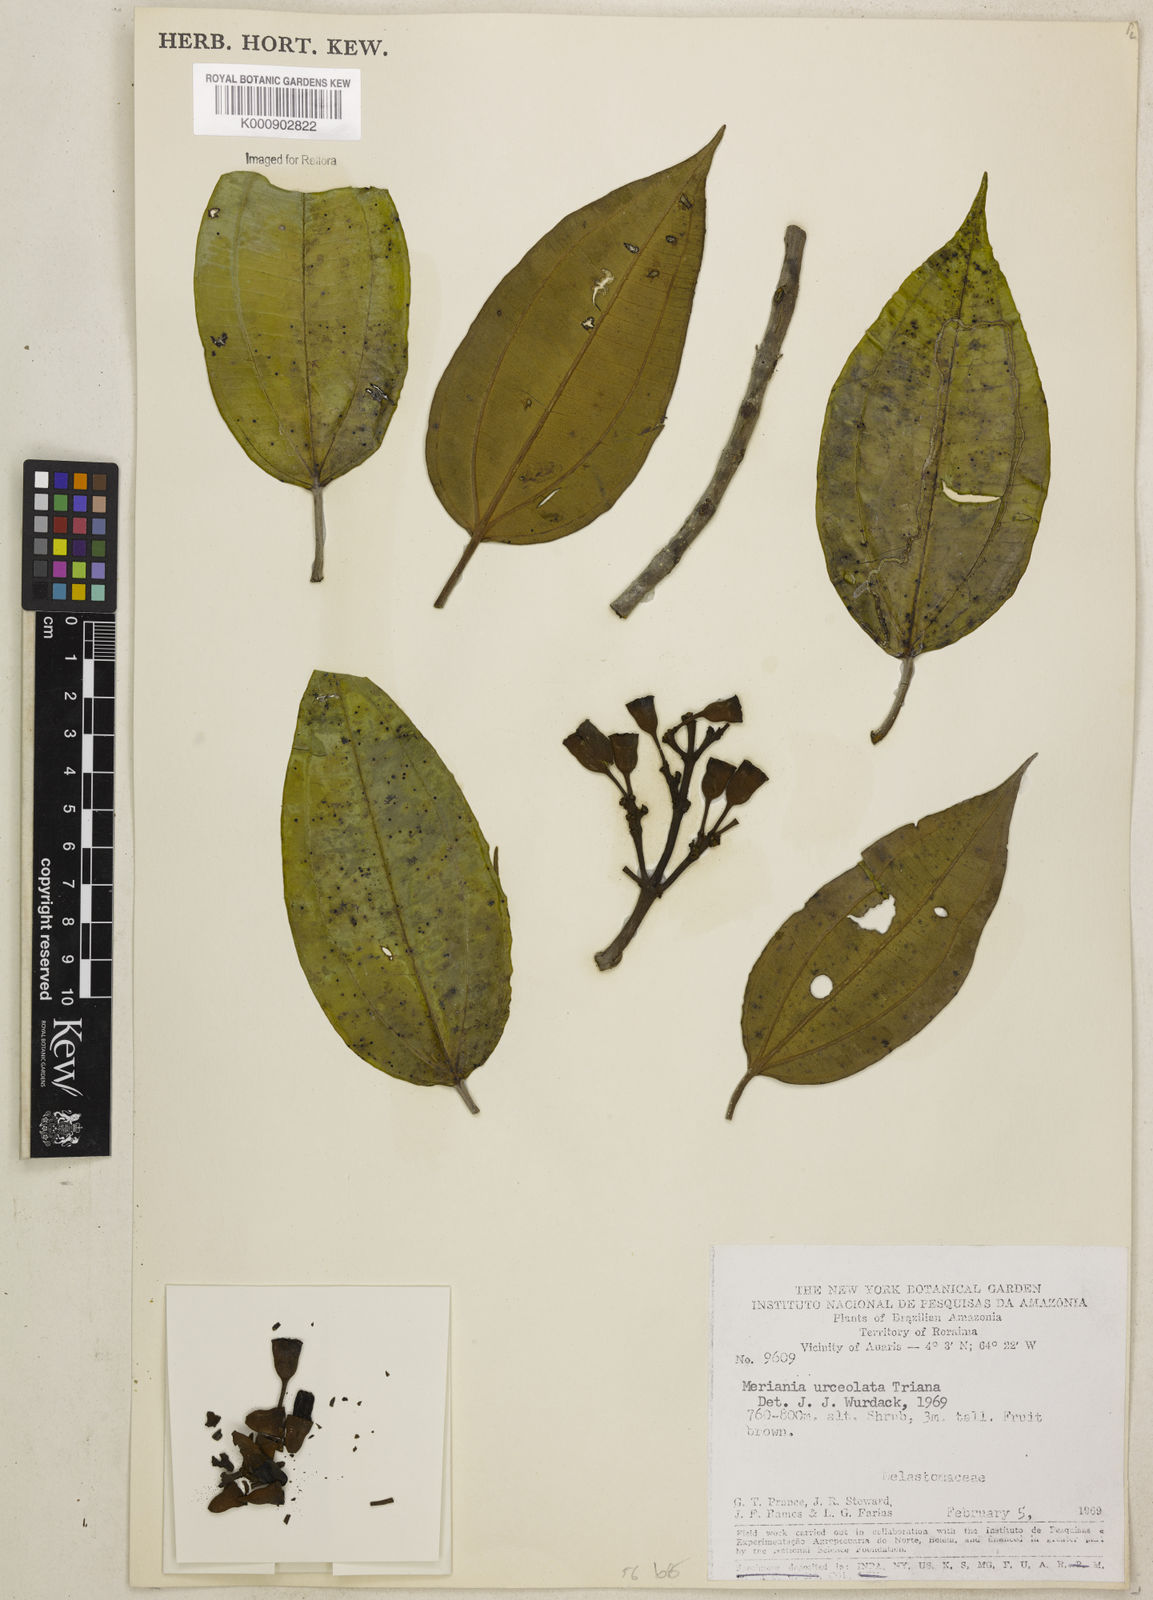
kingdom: Plantae
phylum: Tracheophyta
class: Magnoliopsida
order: Myrtales
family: Melastomataceae
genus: Meriania
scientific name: Meriania urceolata
